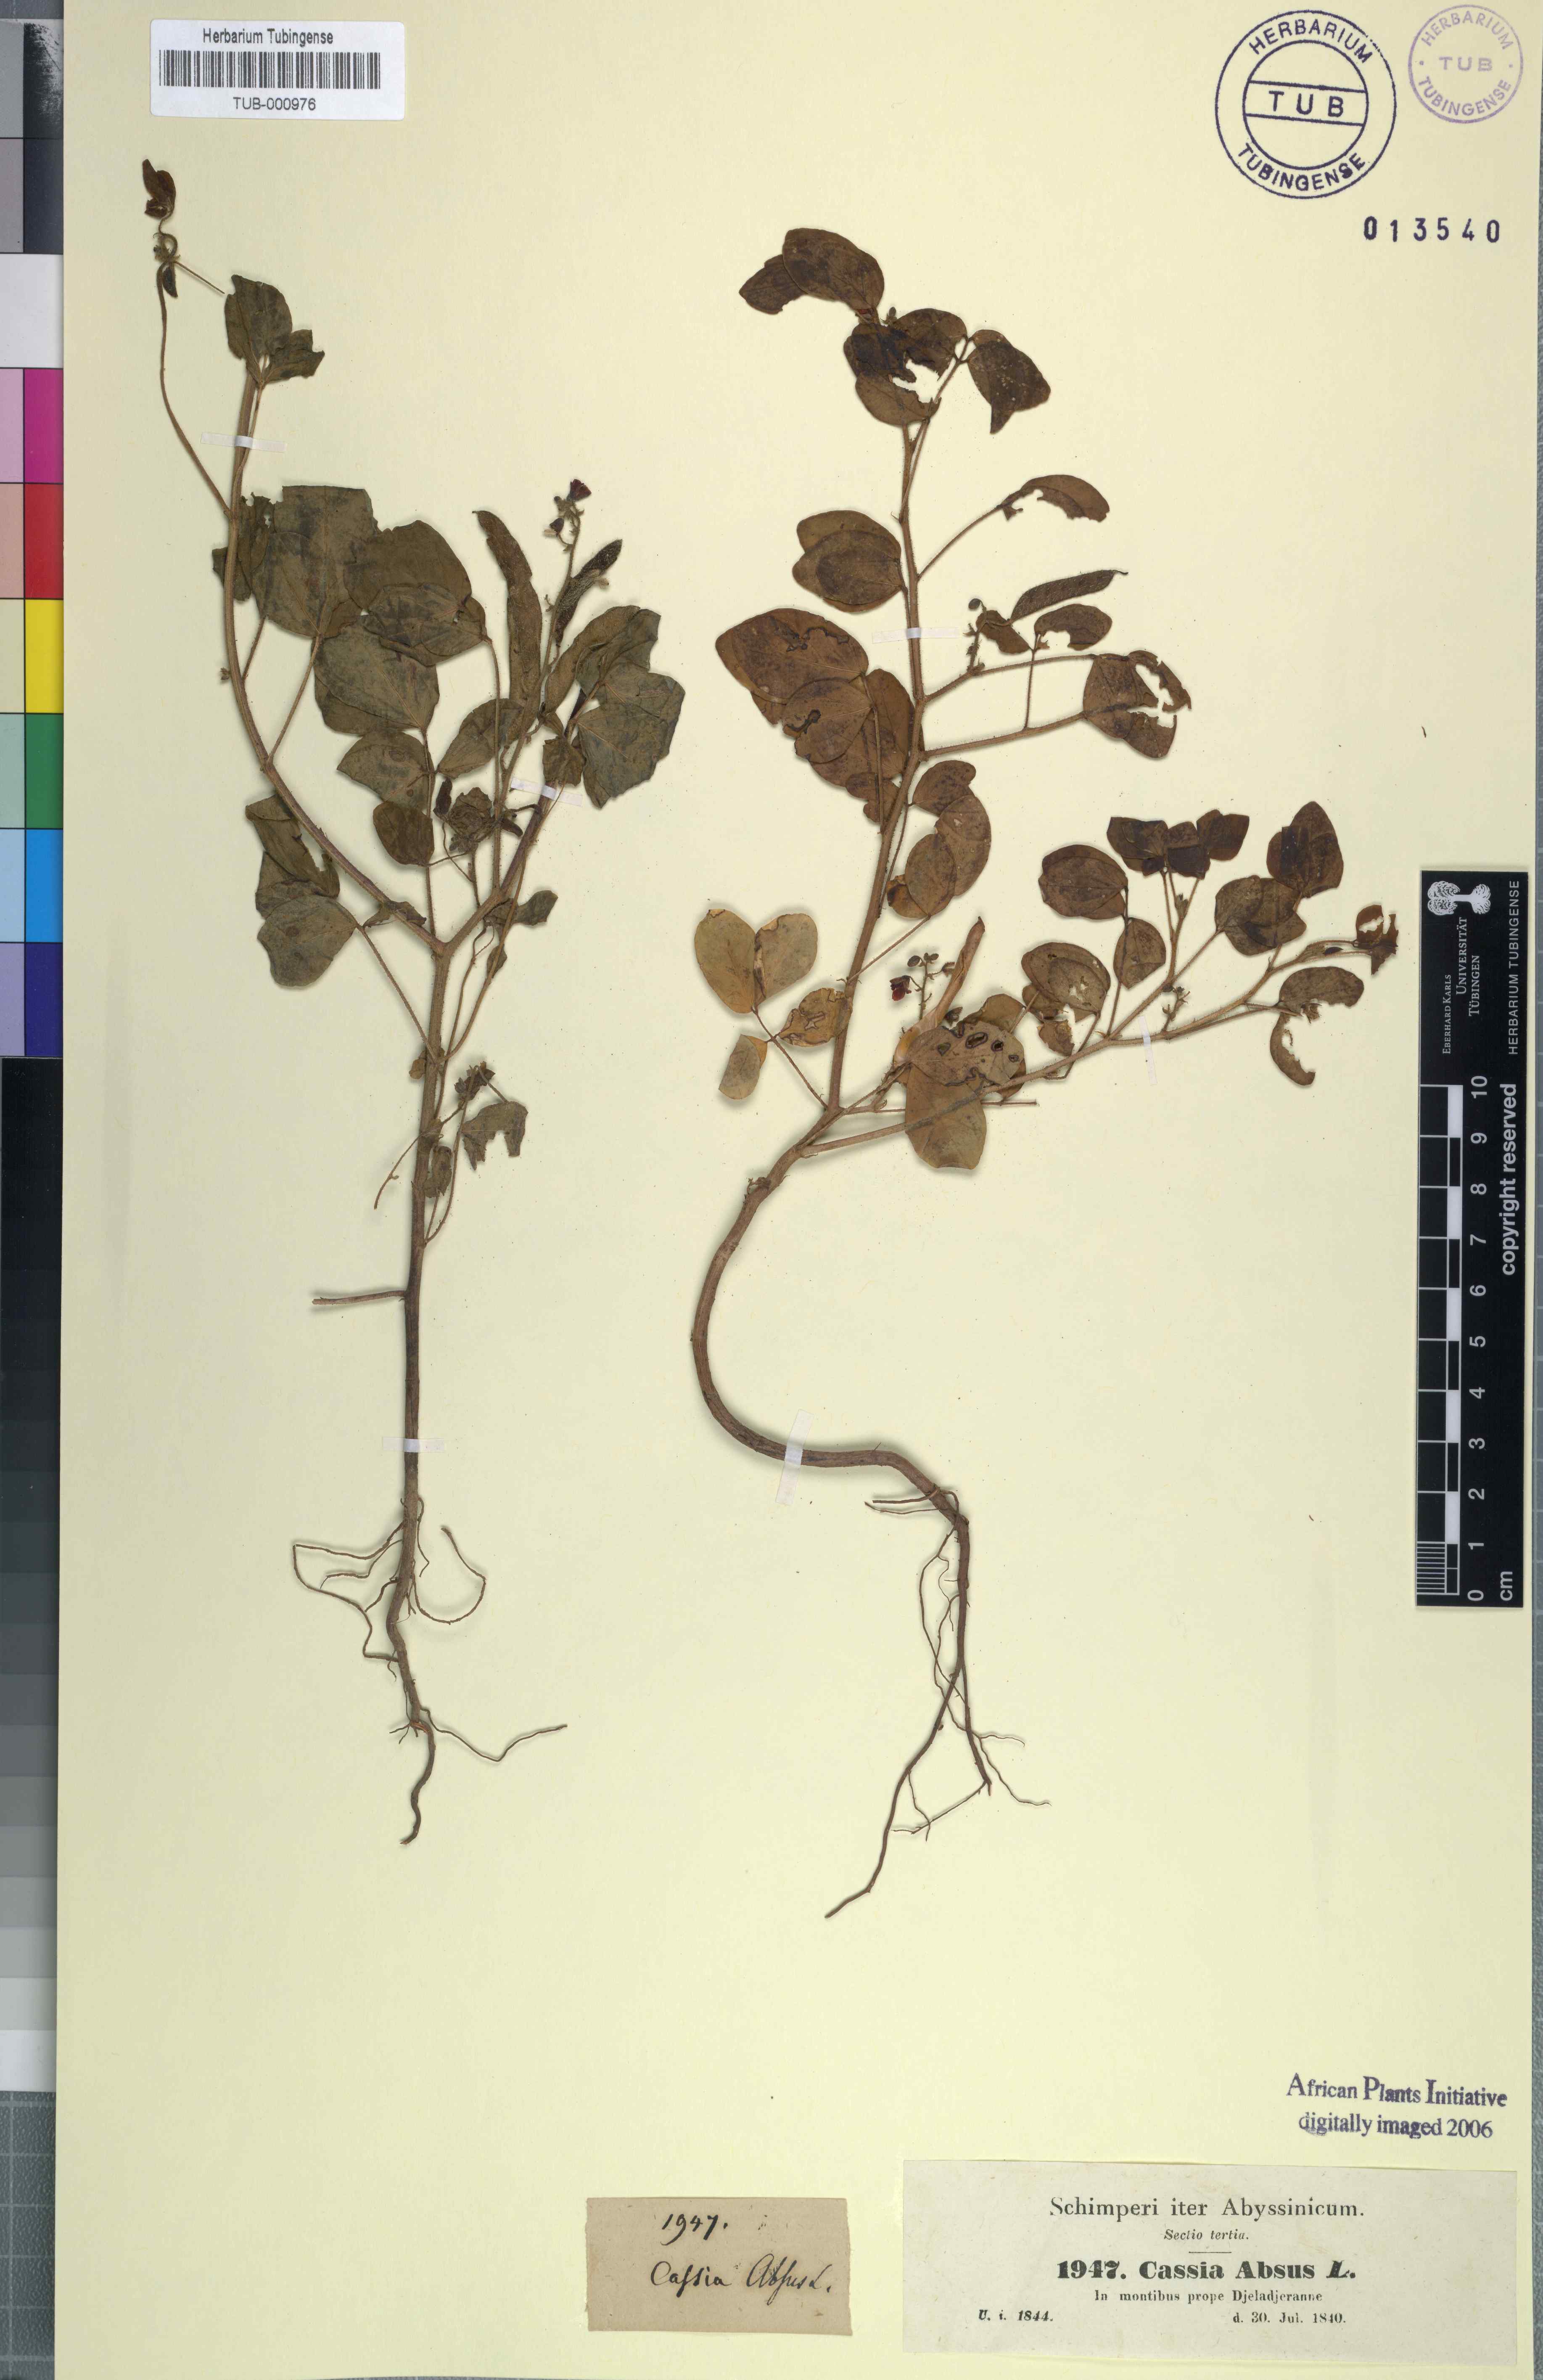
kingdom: Plantae
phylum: Tracheophyta
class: Magnoliopsida
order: Fabales
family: Fabaceae
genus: Chamaecrista
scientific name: Chamaecrista absus
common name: Tropical sensitive pea
